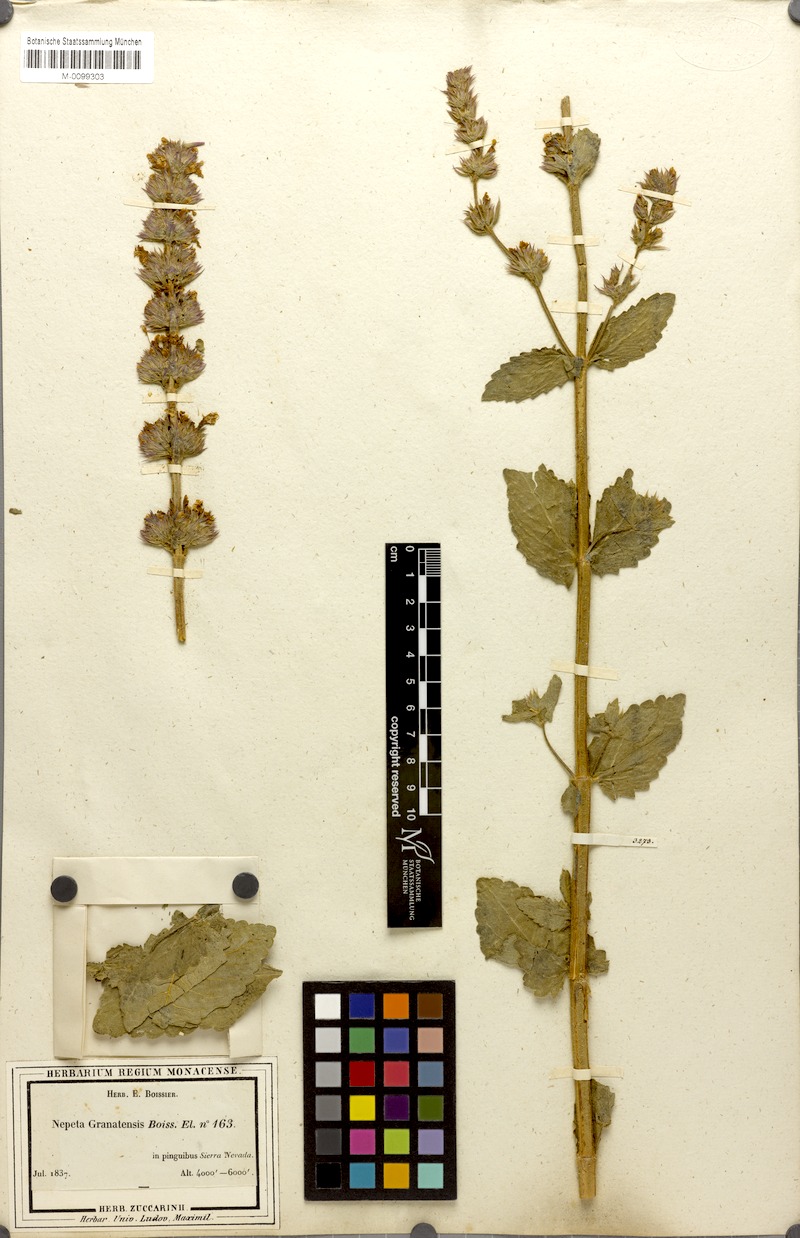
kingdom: Plantae
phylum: Tracheophyta
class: Magnoliopsida
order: Lamiales
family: Lamiaceae
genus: Nepeta
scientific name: Nepeta granatensis
